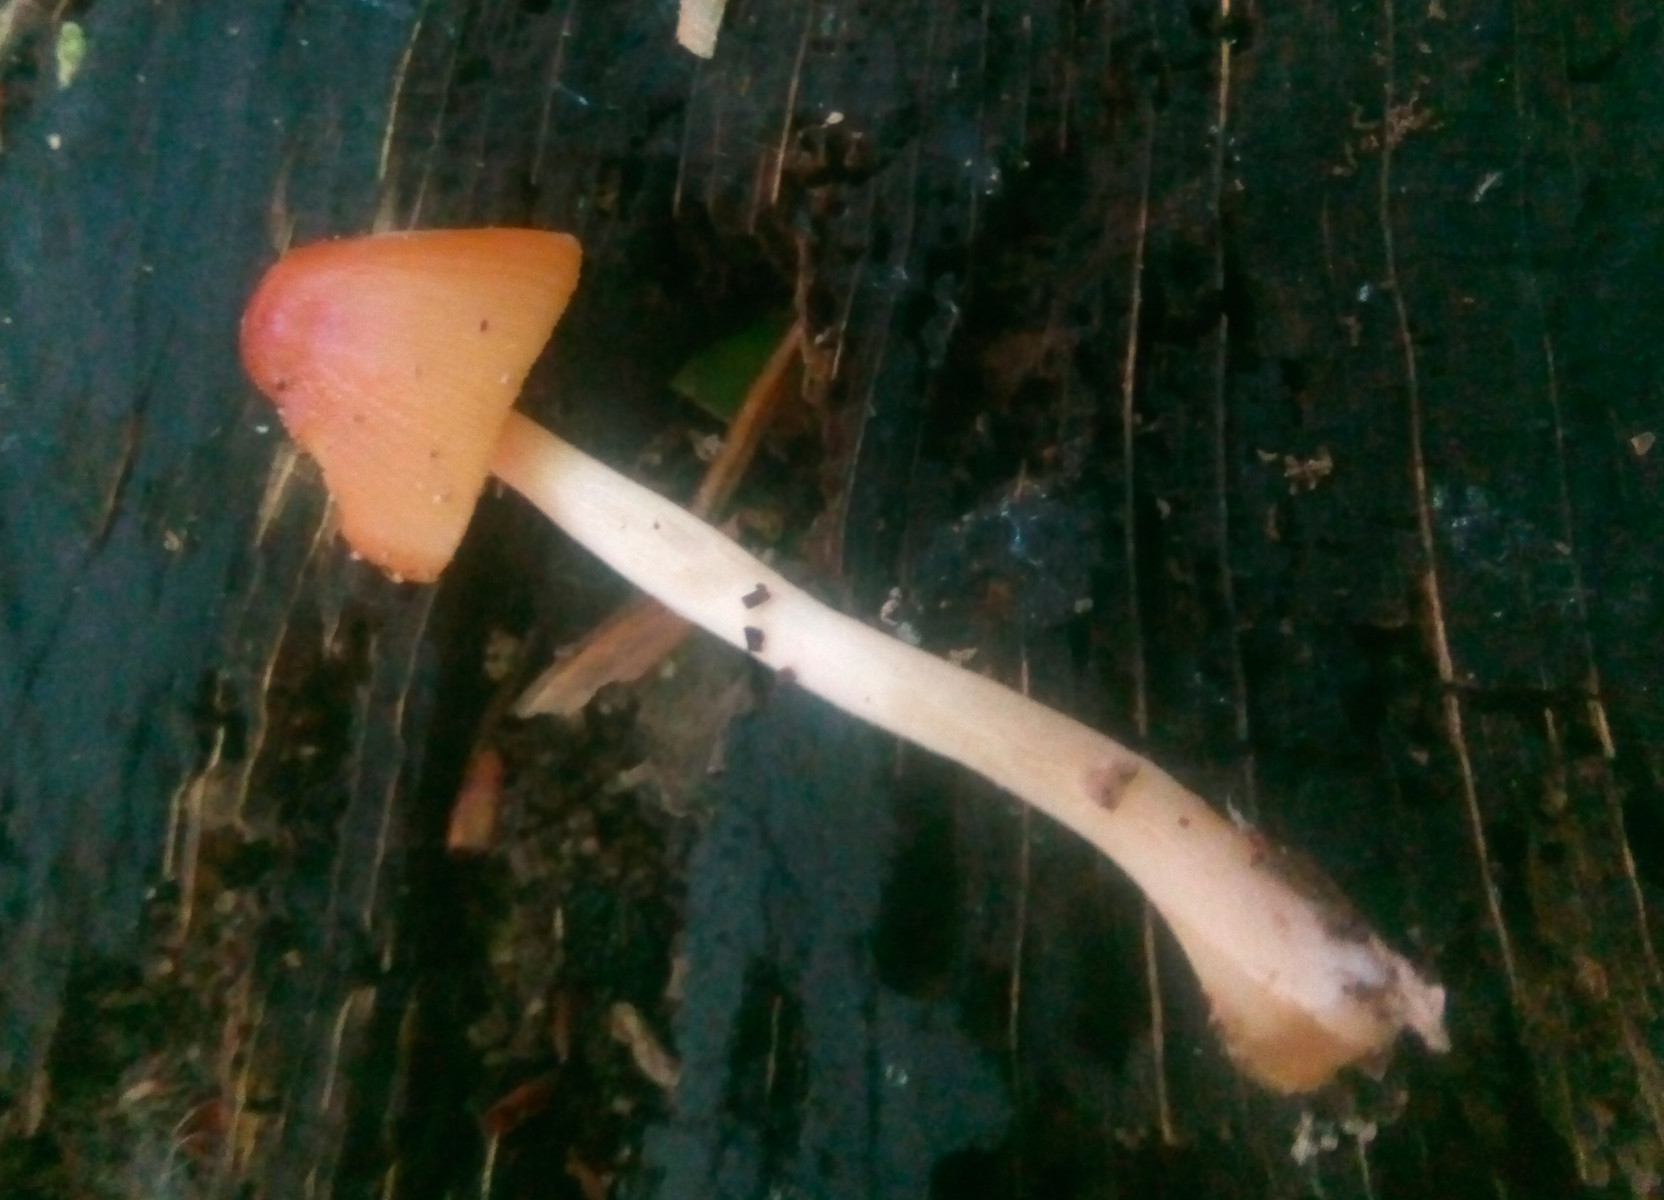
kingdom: Fungi
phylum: Basidiomycota
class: Agaricomycetes
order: Agaricales
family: Bolbitiaceae
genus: Conocybe
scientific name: Conocybe
